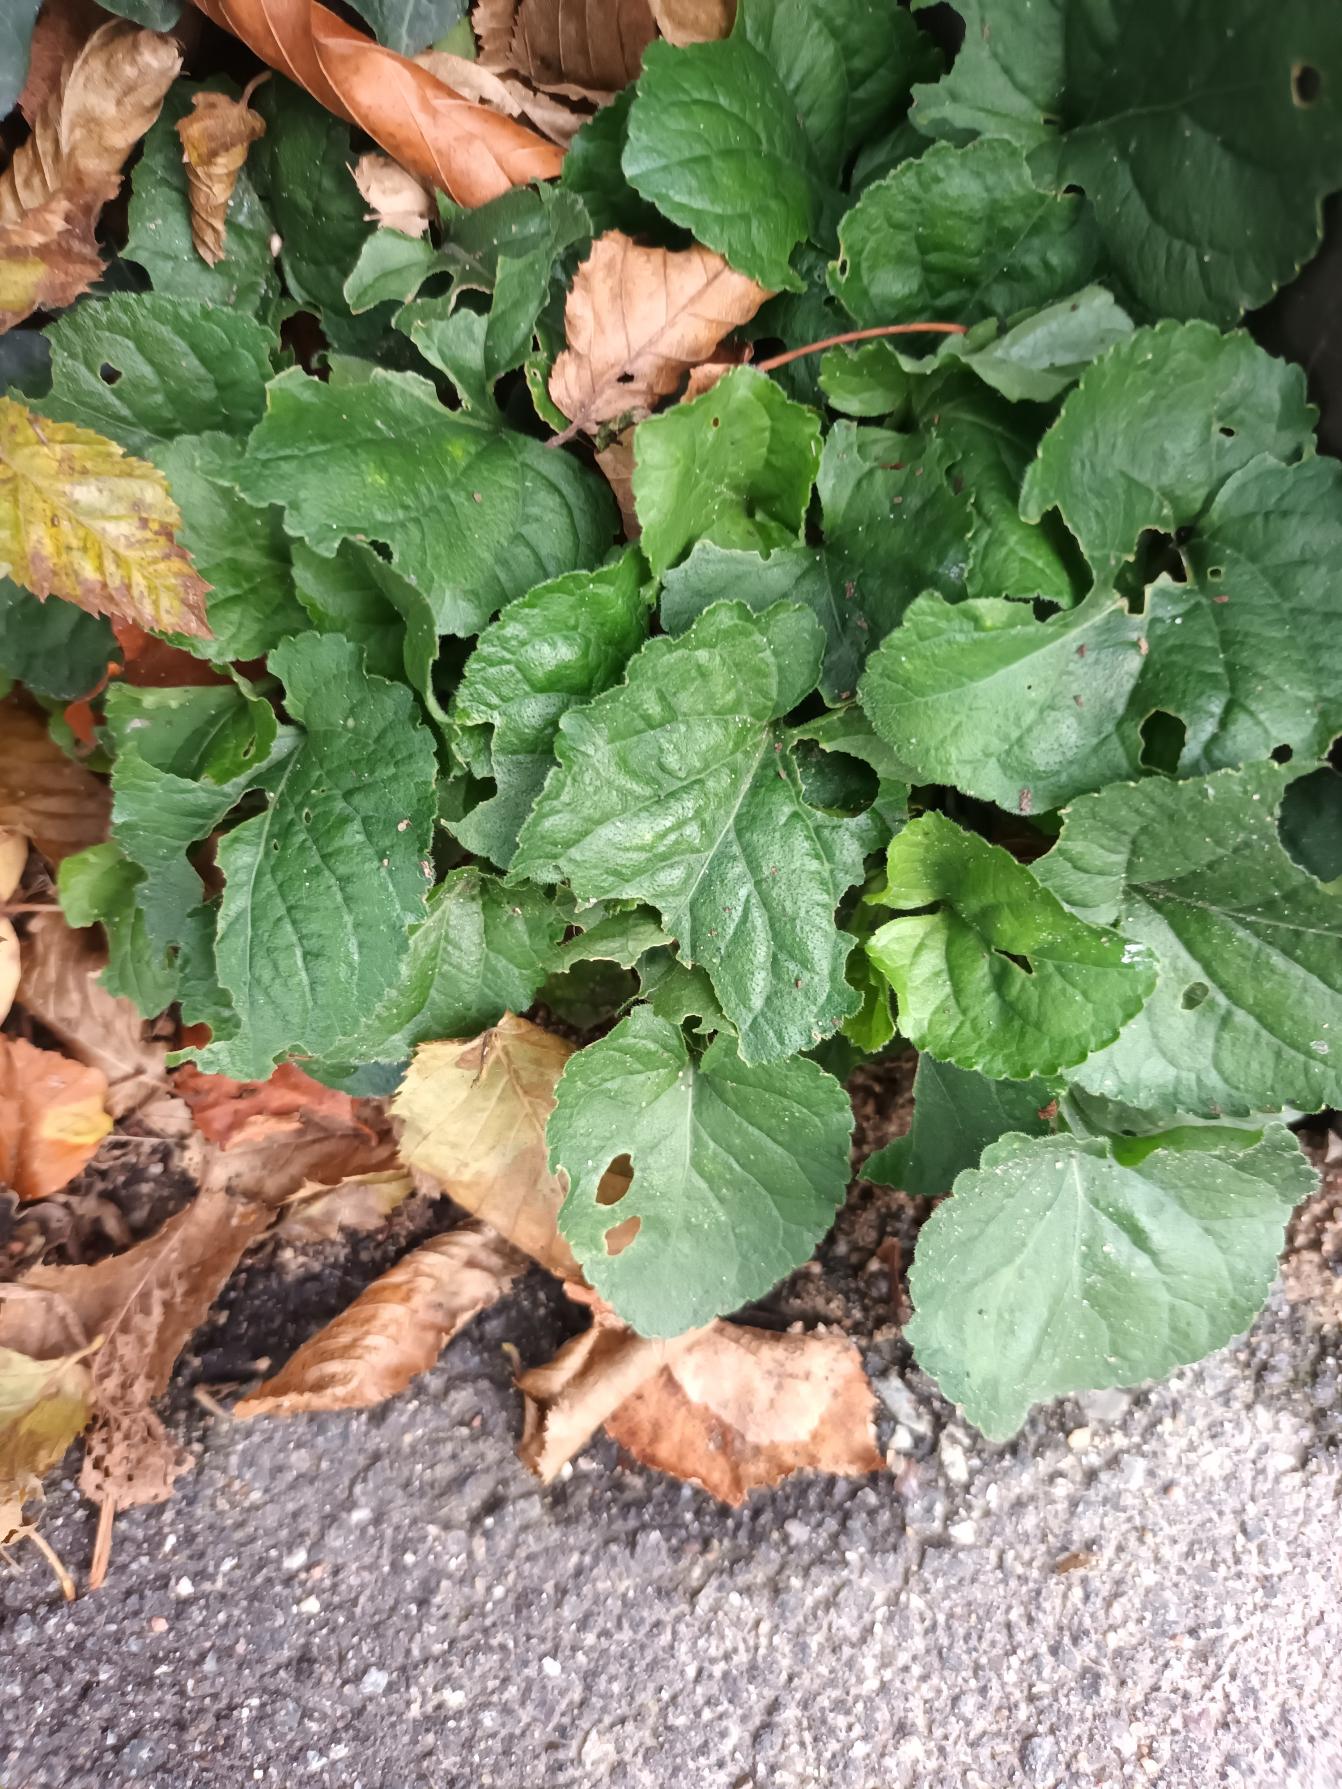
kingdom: Plantae
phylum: Tracheophyta
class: Magnoliopsida
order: Malpighiales
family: Violaceae
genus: Viola
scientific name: Viola odorata
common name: Marts-viol
